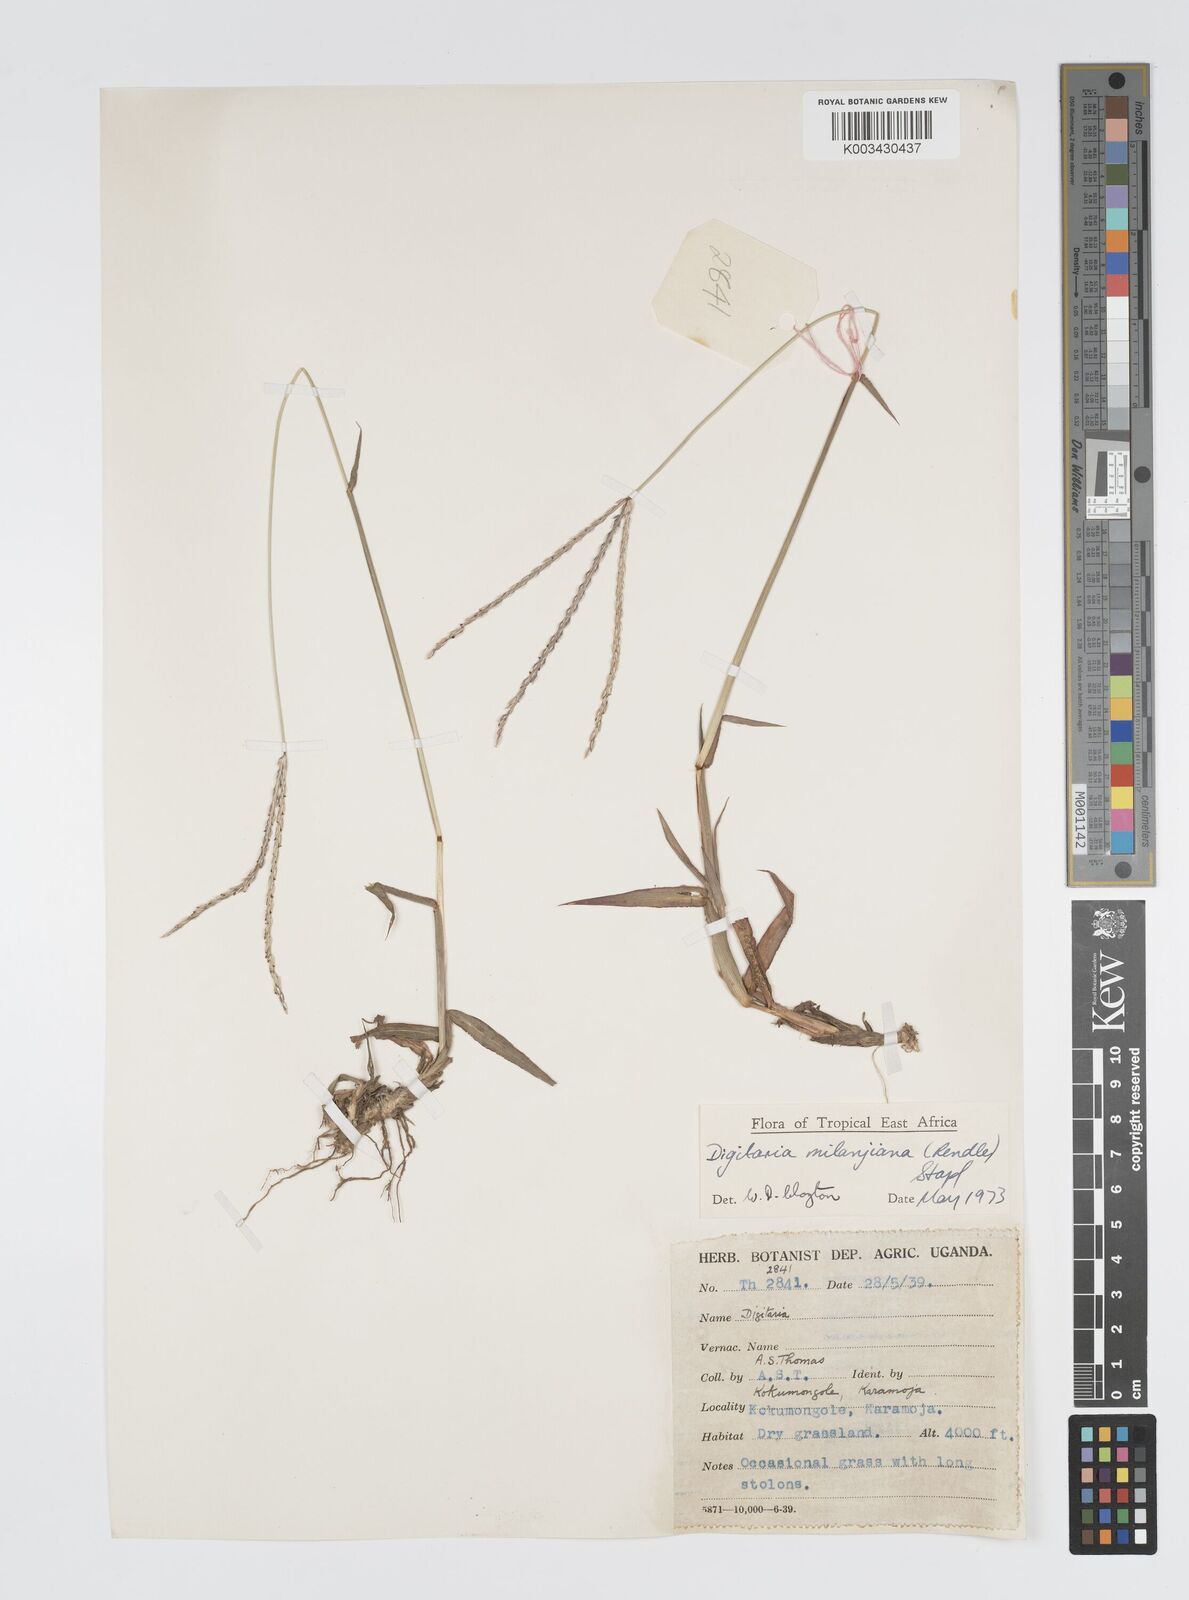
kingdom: Plantae
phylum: Tracheophyta
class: Liliopsida
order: Poales
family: Poaceae
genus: Digitaria
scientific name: Digitaria milanjiana
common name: Madagascar crabgrass
